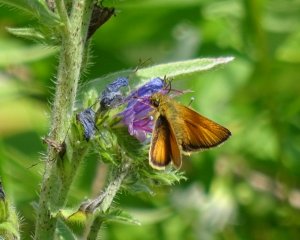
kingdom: Animalia
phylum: Arthropoda
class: Insecta
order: Lepidoptera
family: Hesperiidae
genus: Thymelicus
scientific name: Thymelicus lineola
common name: European Skipper
